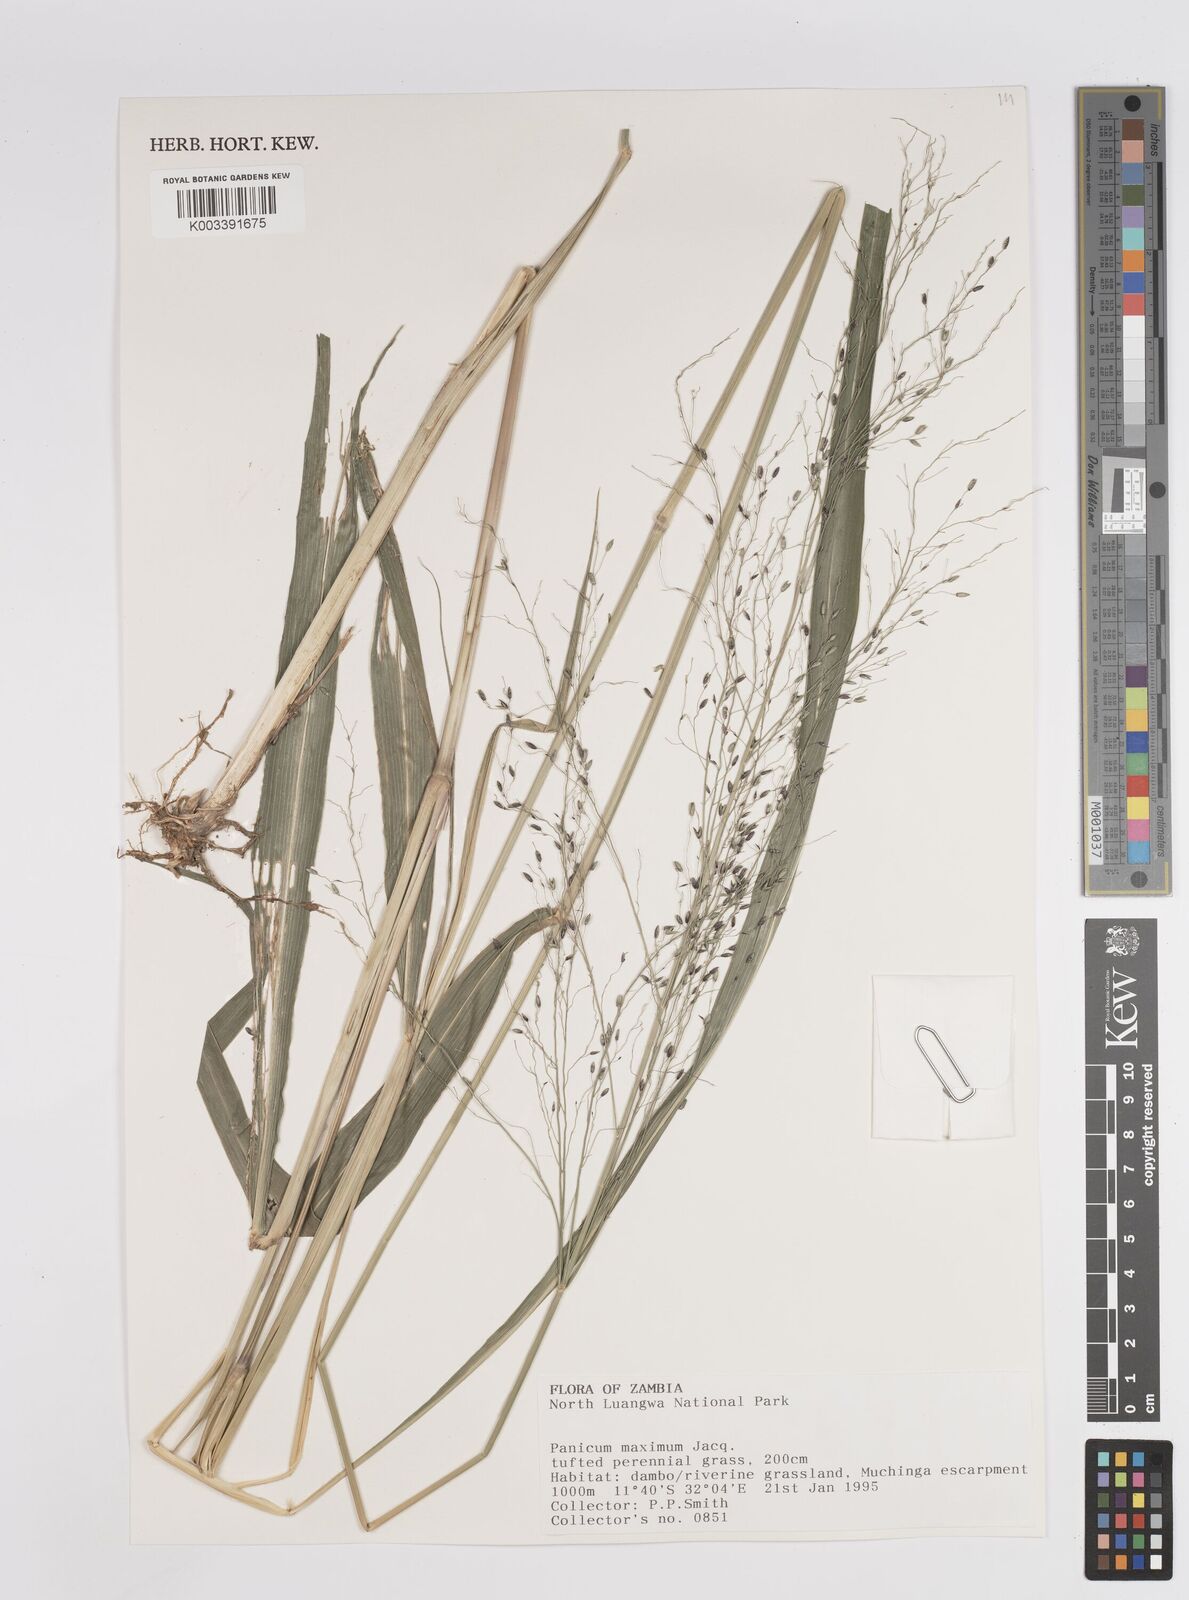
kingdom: Plantae
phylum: Tracheophyta
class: Liliopsida
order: Poales
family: Poaceae
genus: Megathyrsus
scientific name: Megathyrsus maximus
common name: Guineagrass
